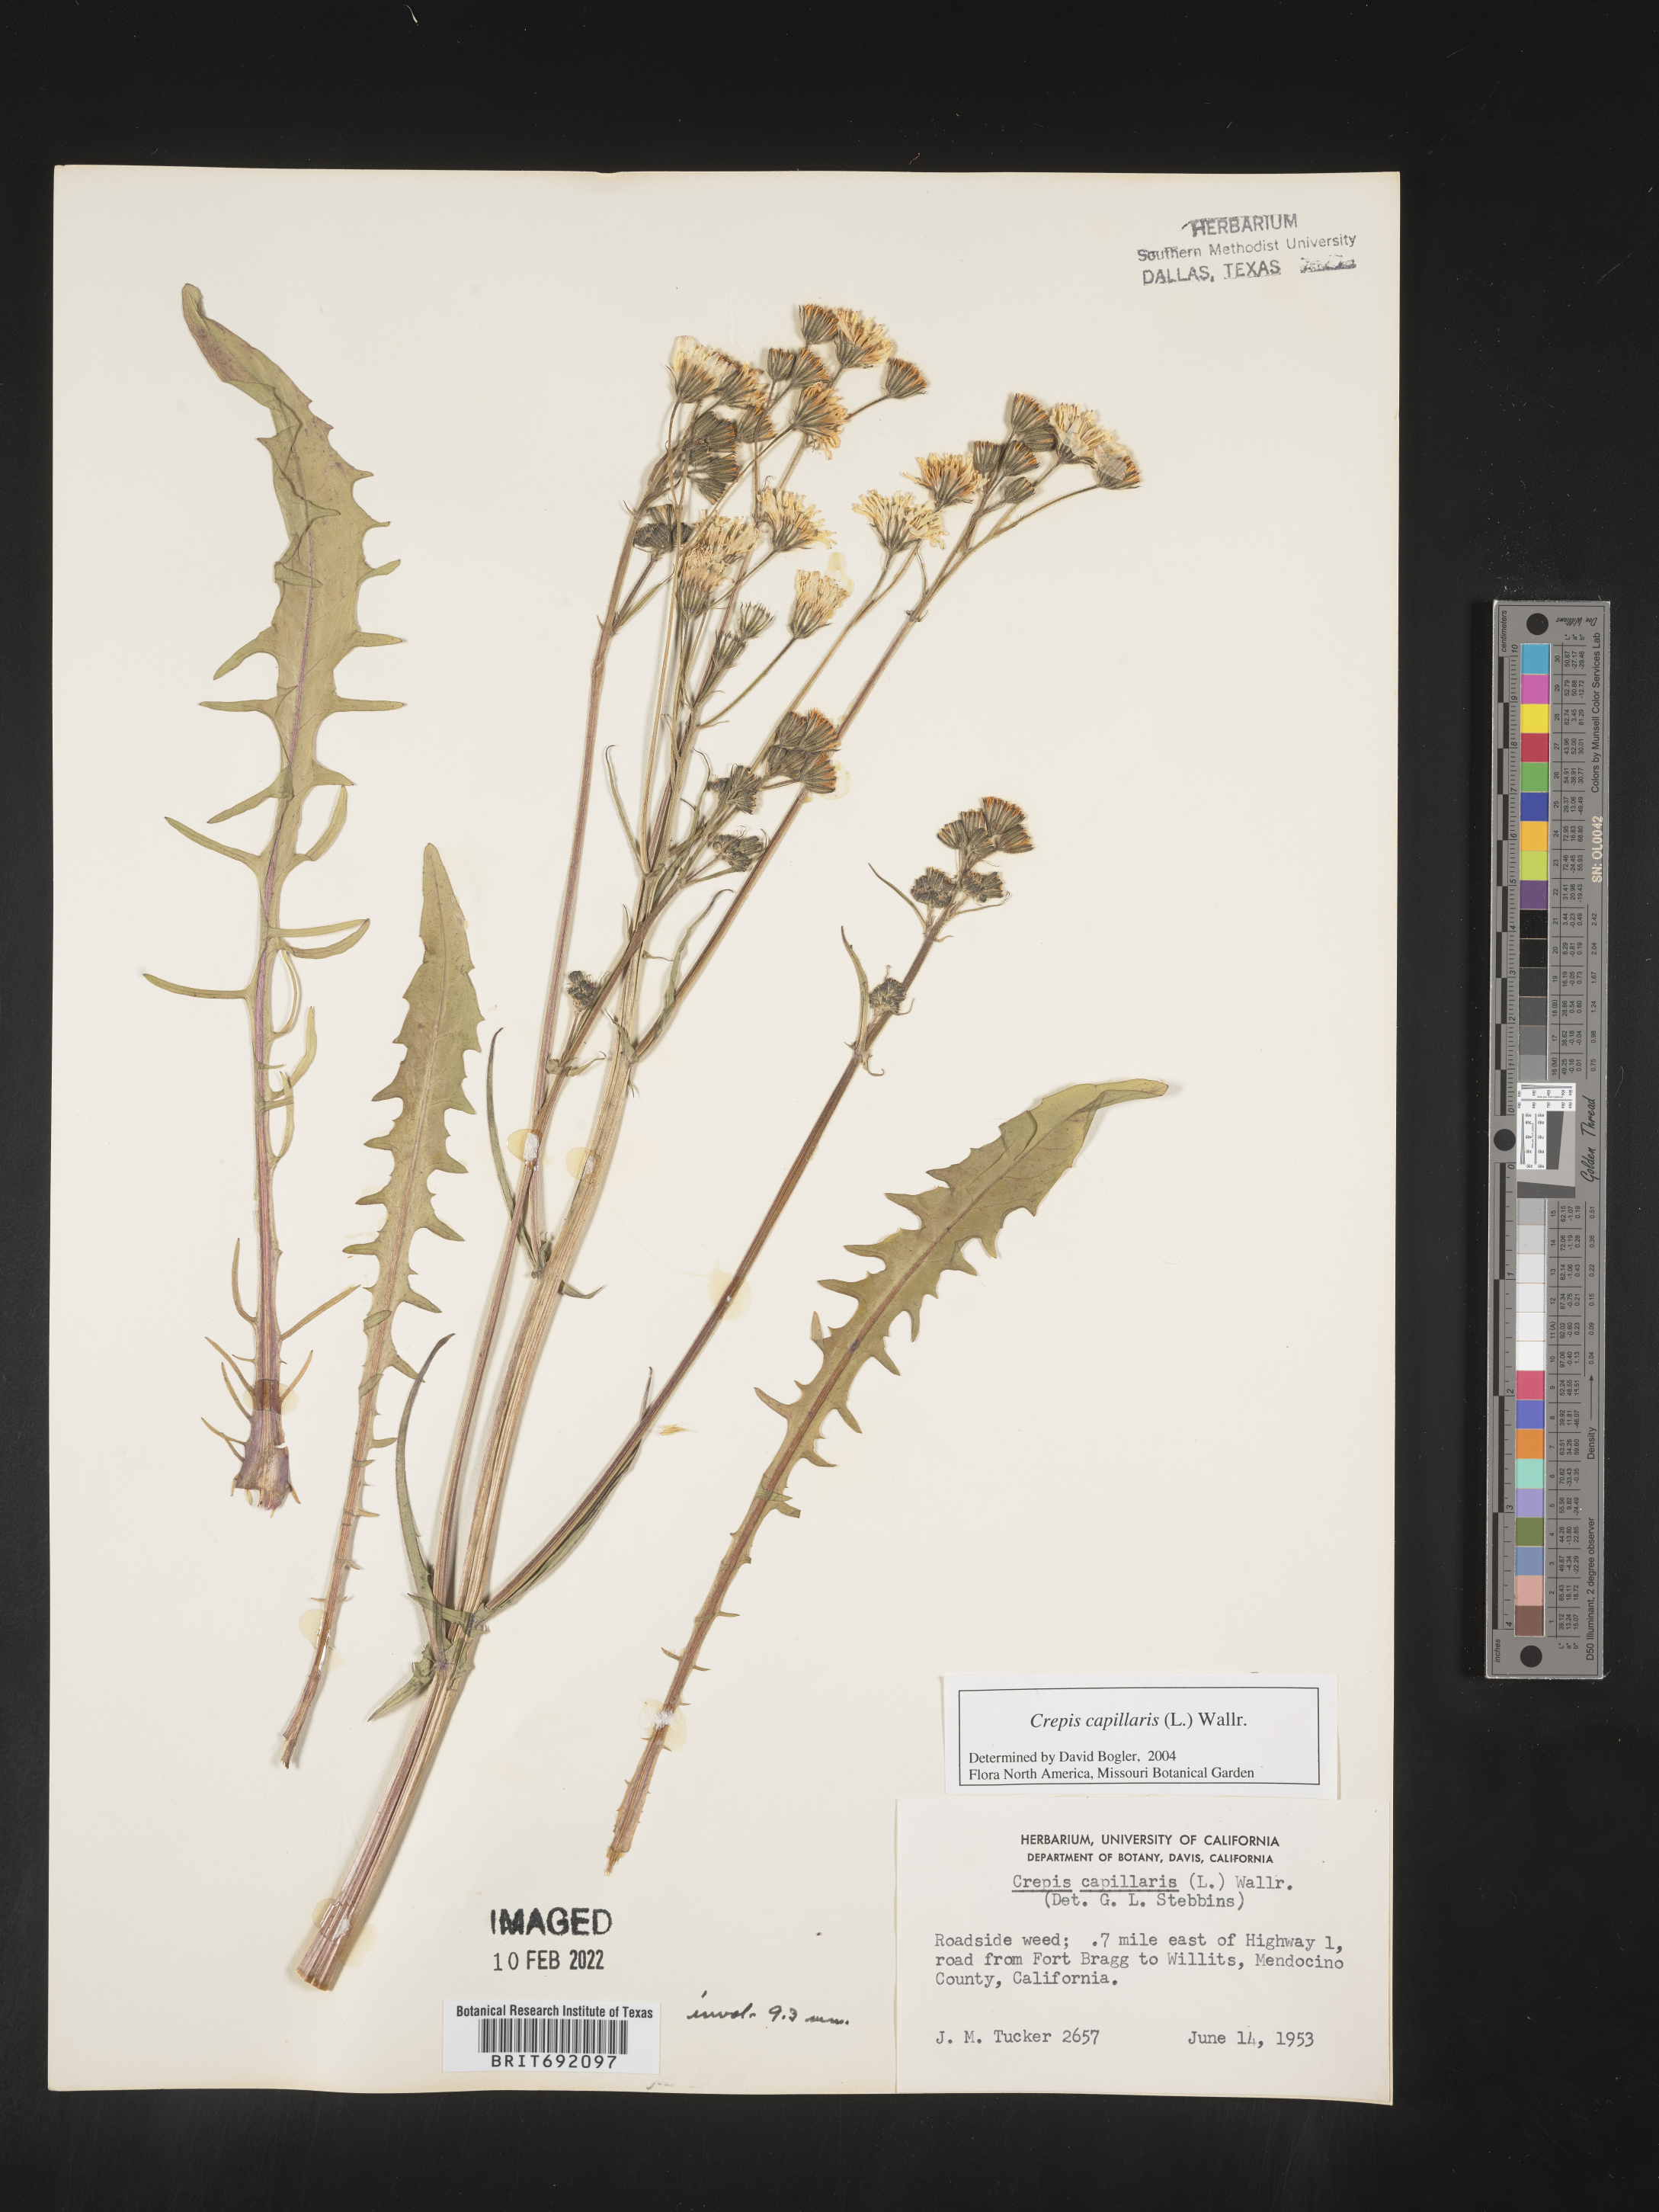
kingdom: Plantae
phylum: Tracheophyta
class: Magnoliopsida
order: Asterales
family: Asteraceae
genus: Crepis
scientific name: Crepis
